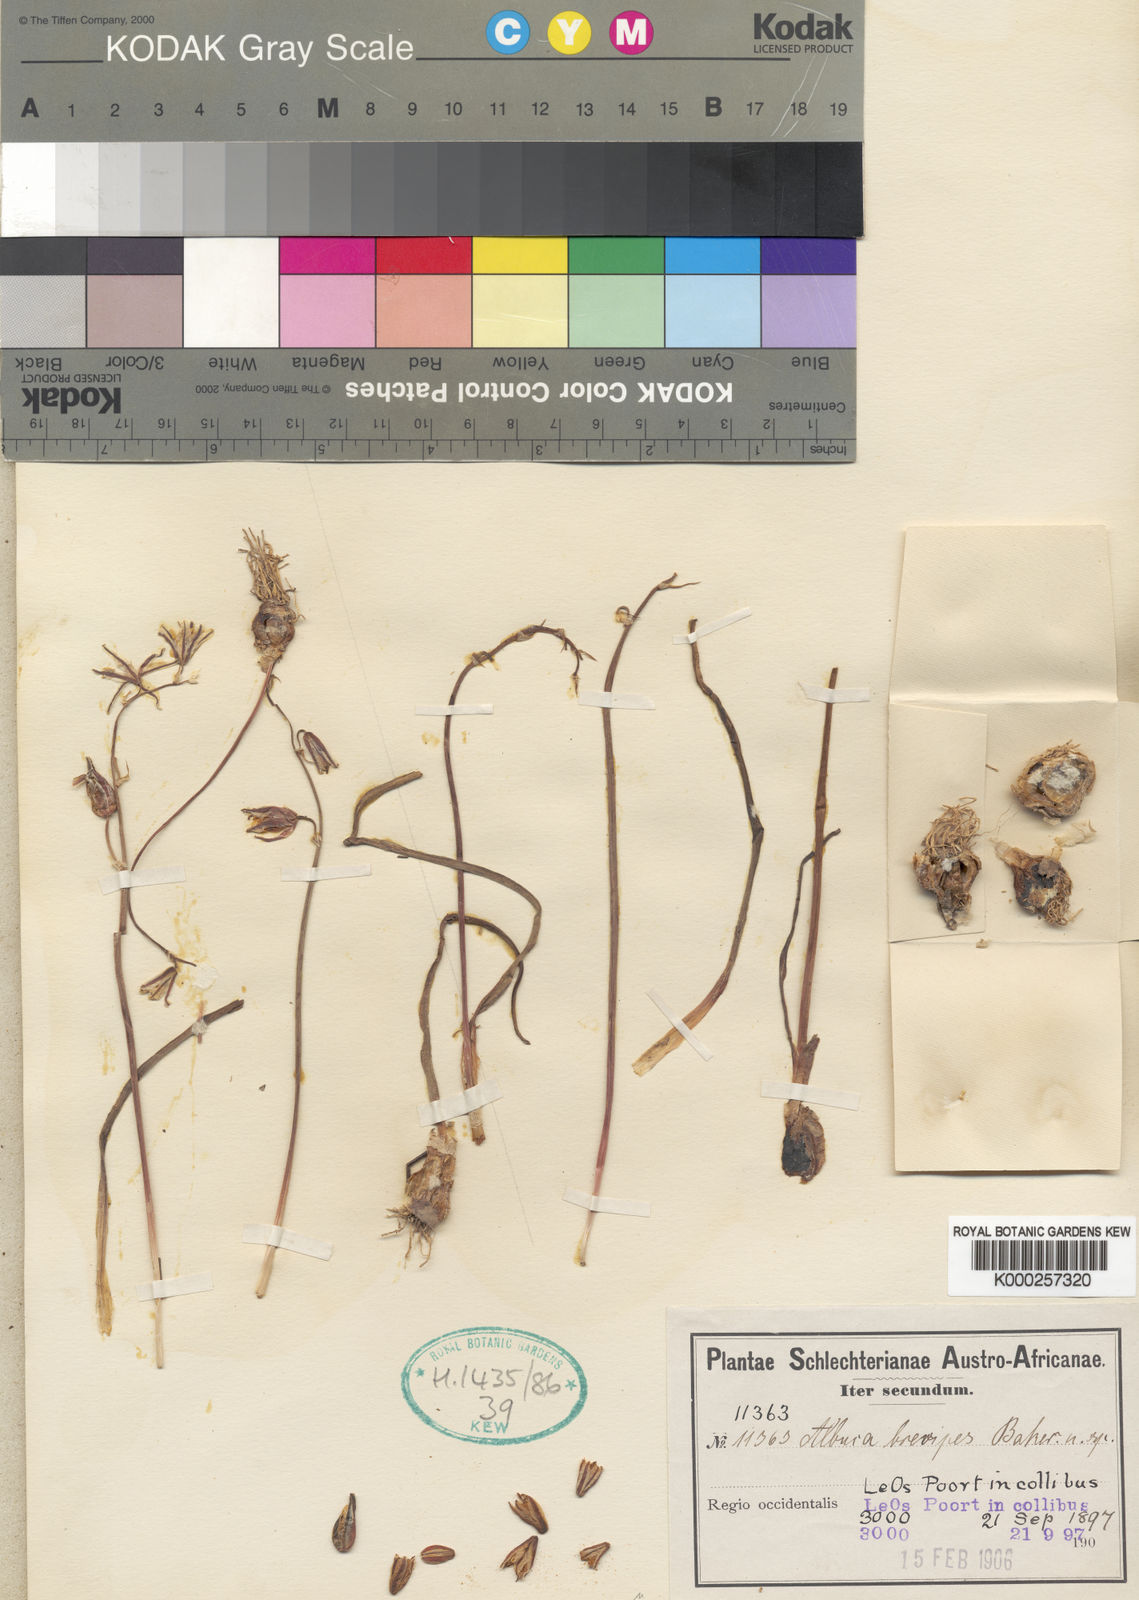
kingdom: Plantae
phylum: Tracheophyta
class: Liliopsida
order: Asparagales
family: Asparagaceae
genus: Albuca
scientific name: Albuca albucoides
